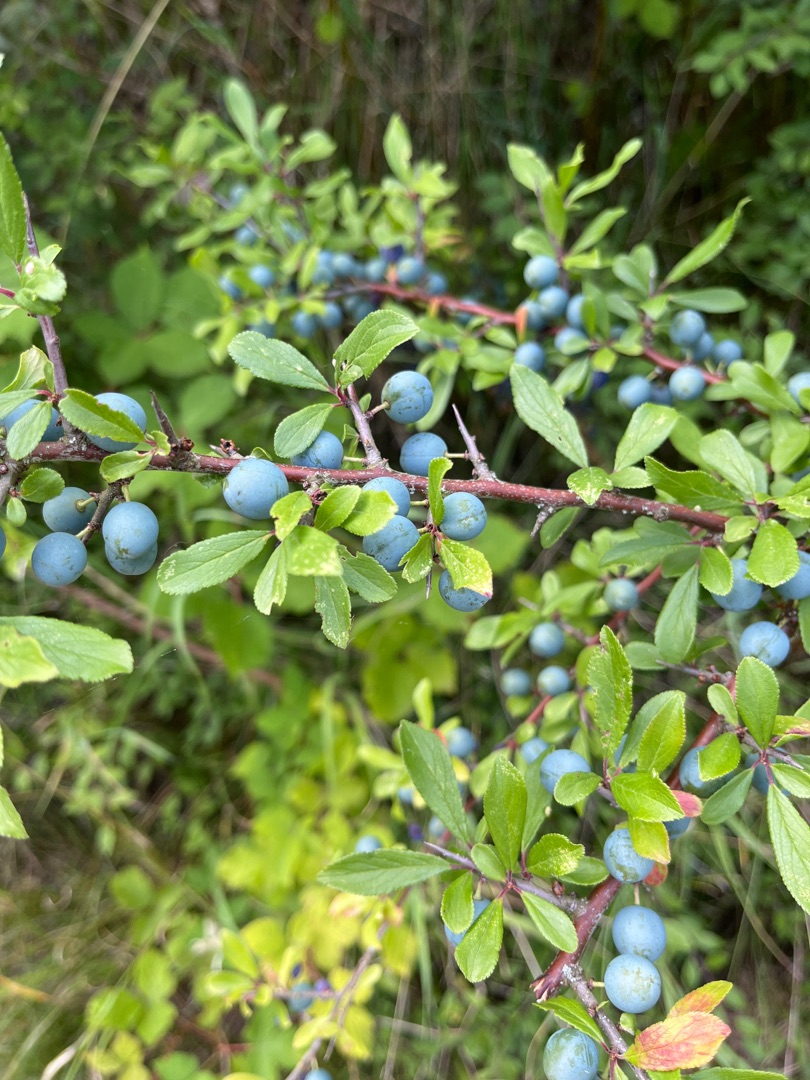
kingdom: Plantae
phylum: Tracheophyta
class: Magnoliopsida
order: Rosales
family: Rosaceae
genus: Prunus
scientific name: Prunus spinosa
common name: Slåen
